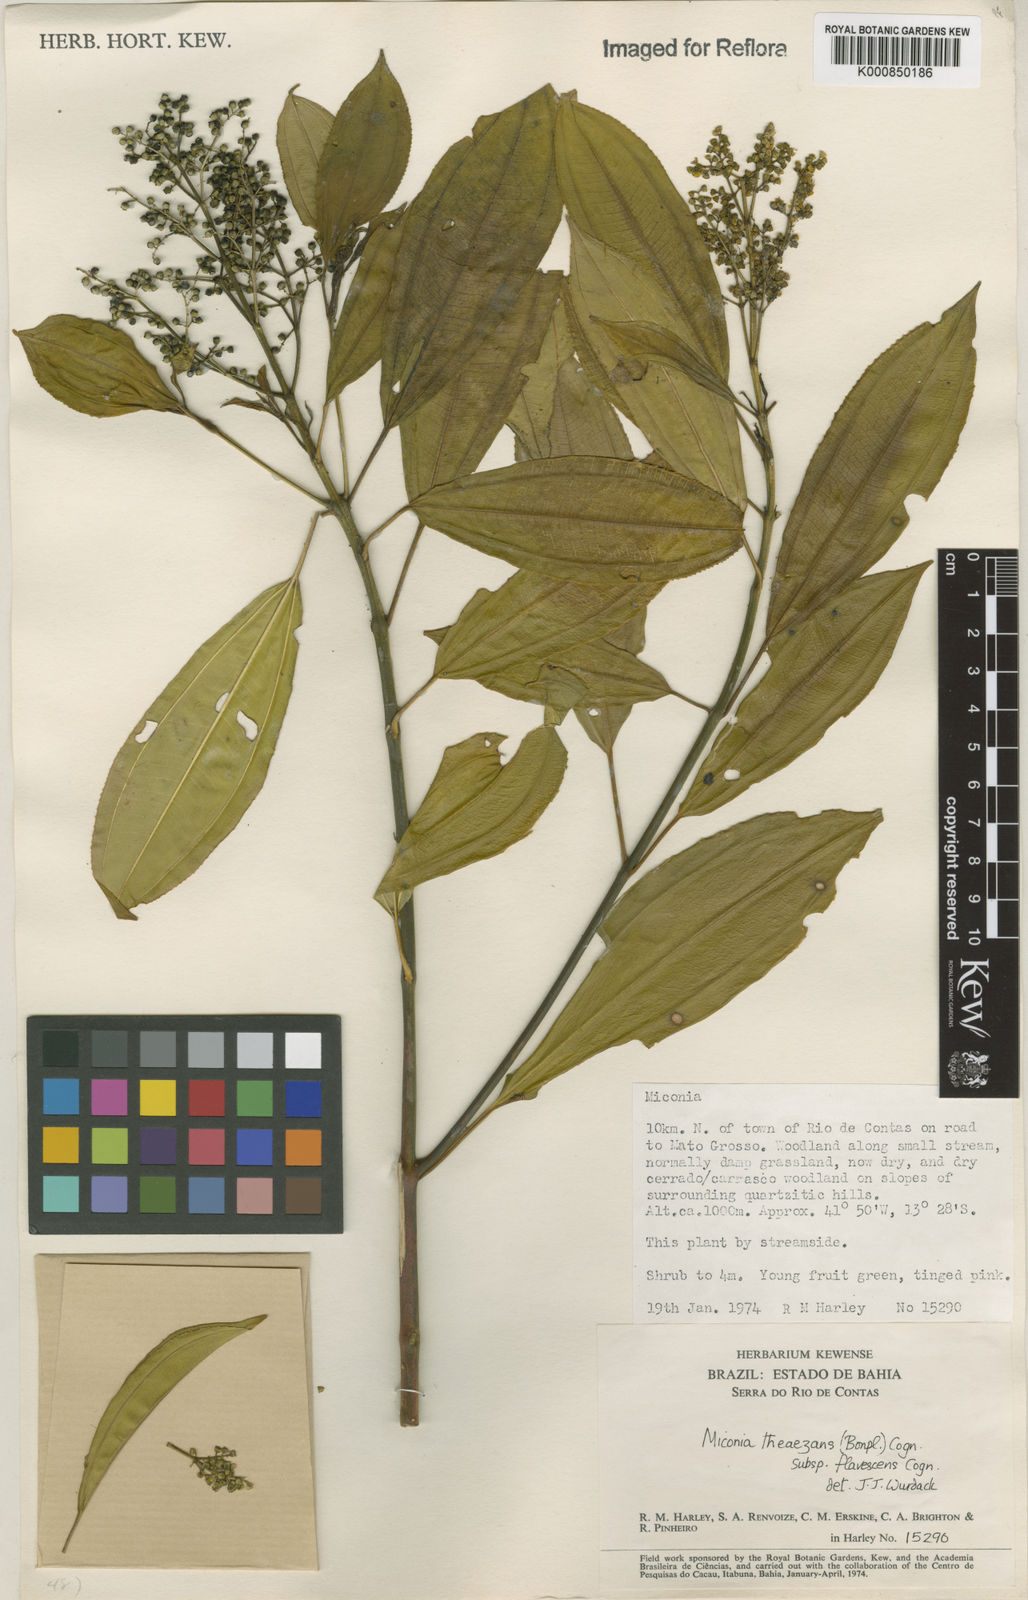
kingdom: Plantae
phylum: Tracheophyta
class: Magnoliopsida
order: Myrtales
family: Melastomataceae
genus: Miconia
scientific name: Miconia
